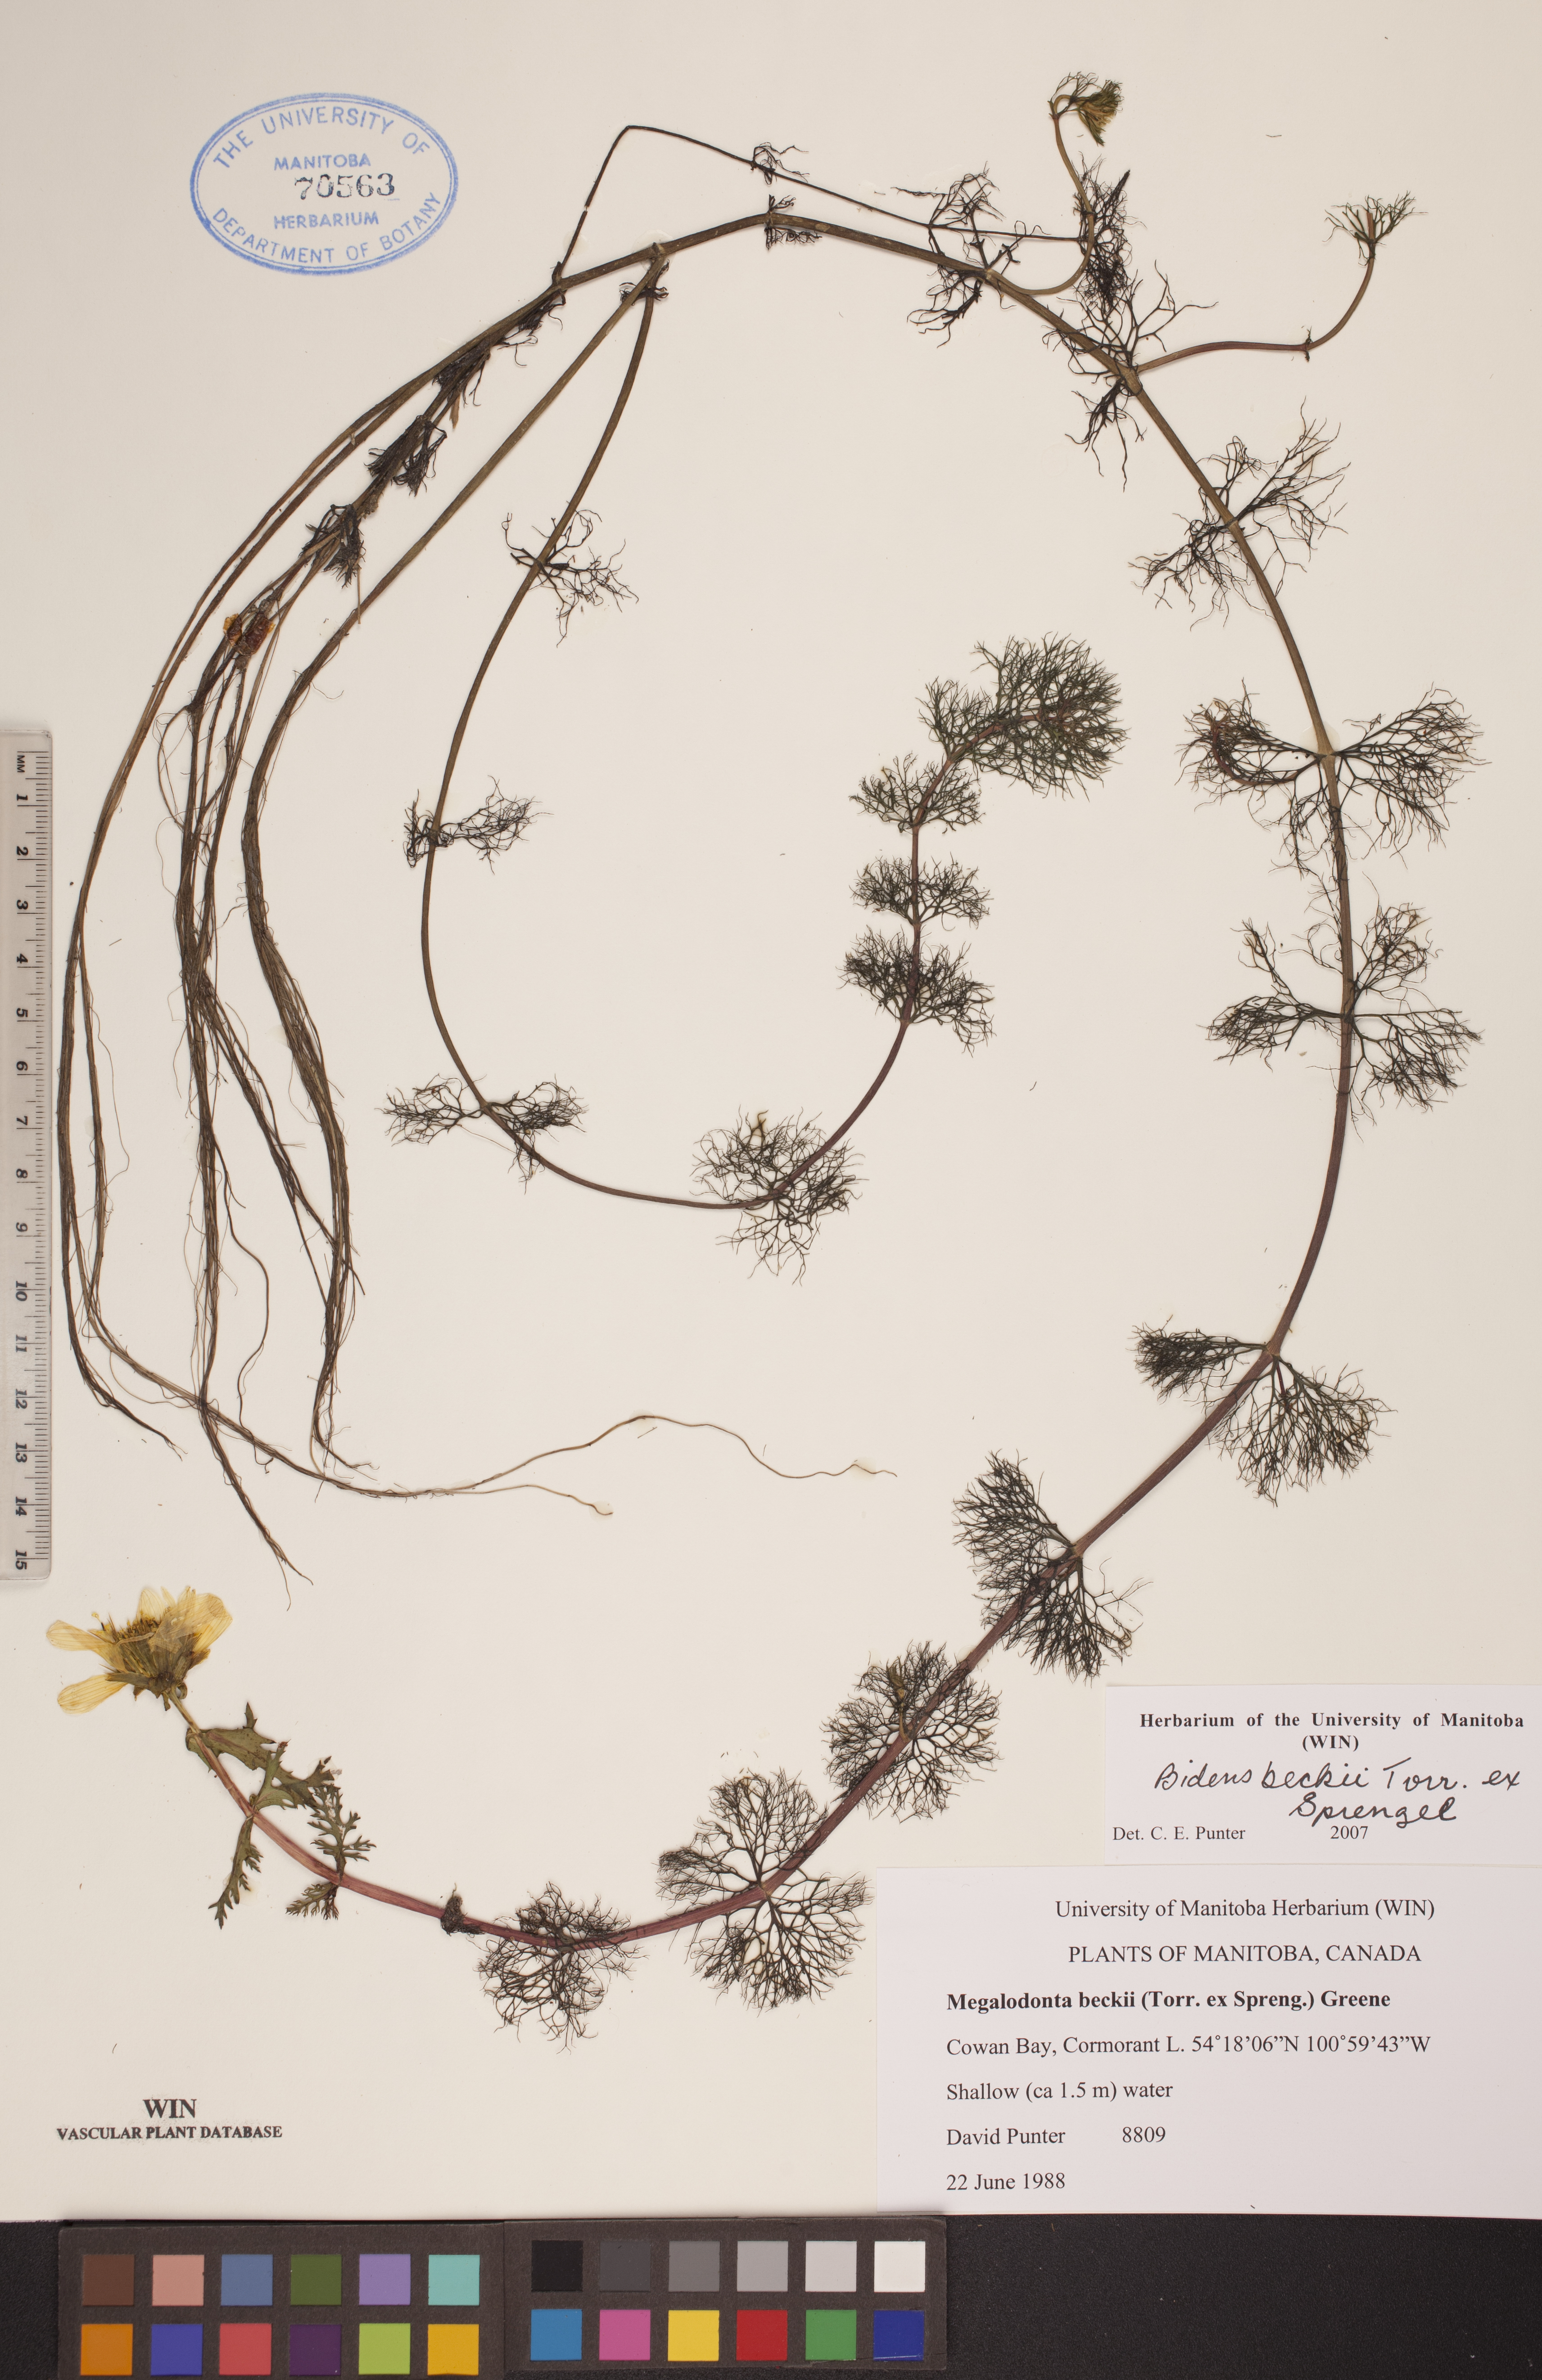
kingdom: Plantae
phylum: Tracheophyta
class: Magnoliopsida
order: Asterales
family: Asteraceae
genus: Bidens
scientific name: Bidens beckii
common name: Beck's beggarticks
